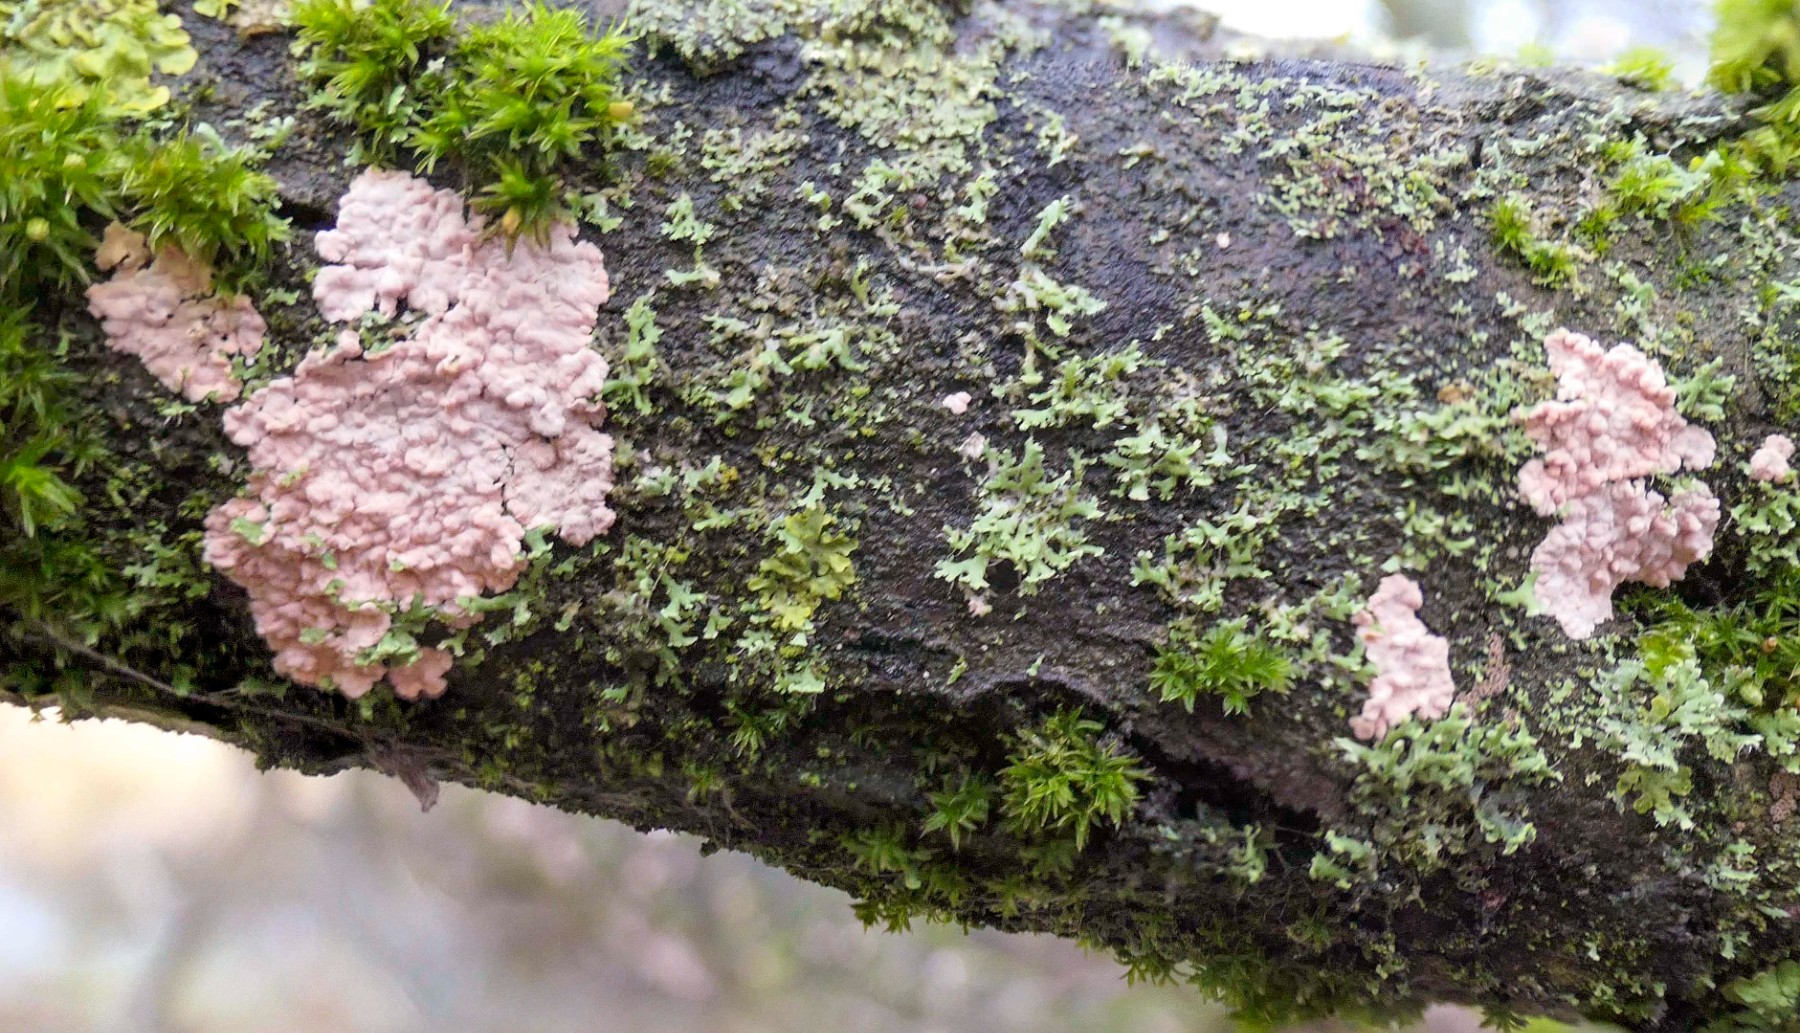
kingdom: Fungi
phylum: Basidiomycota
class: Agaricomycetes
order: Corticiales
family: Corticiaceae
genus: Corticium
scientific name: Corticium roseum
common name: rosa barkskind
